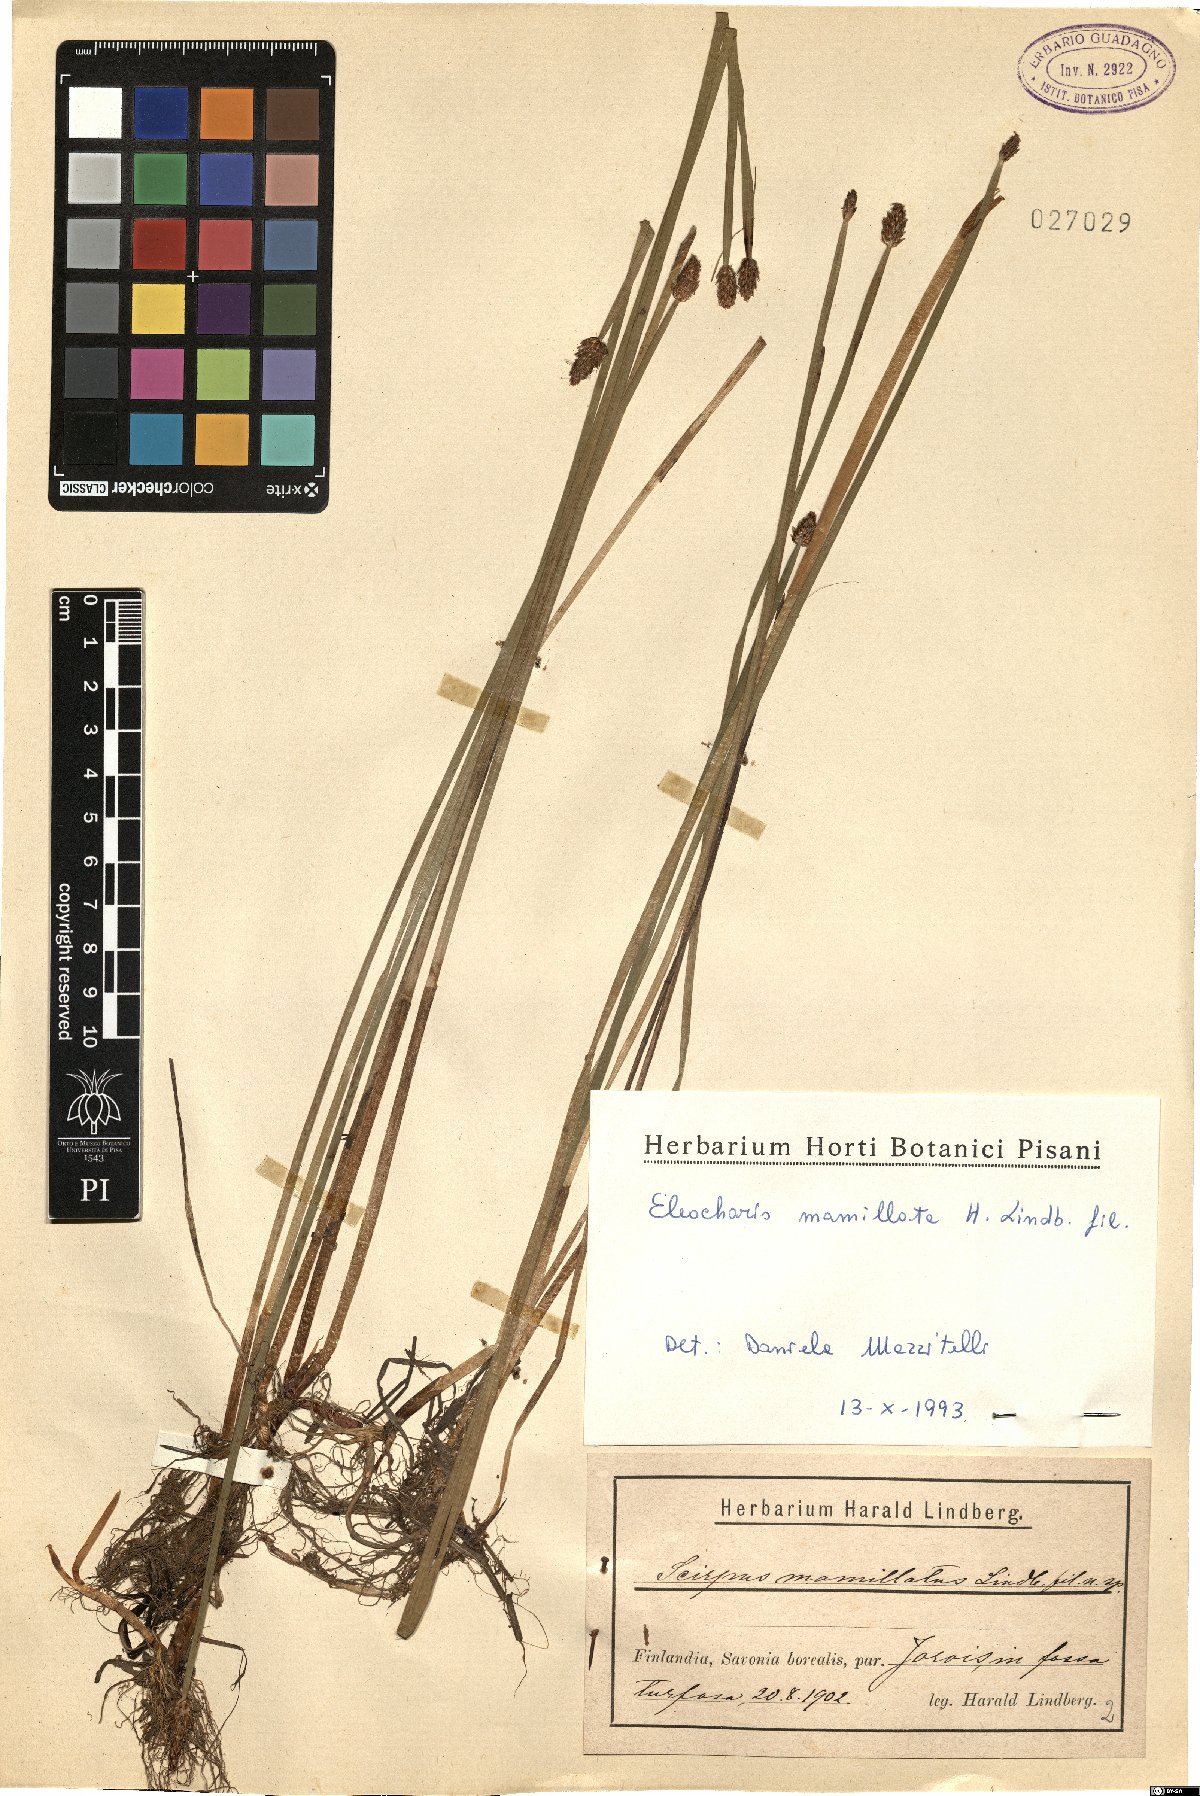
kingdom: Plantae
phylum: Tracheophyta
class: Liliopsida
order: Poales
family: Cyperaceae
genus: Eleocharis
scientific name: Eleocharis mamillata
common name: Northern spike-rush
